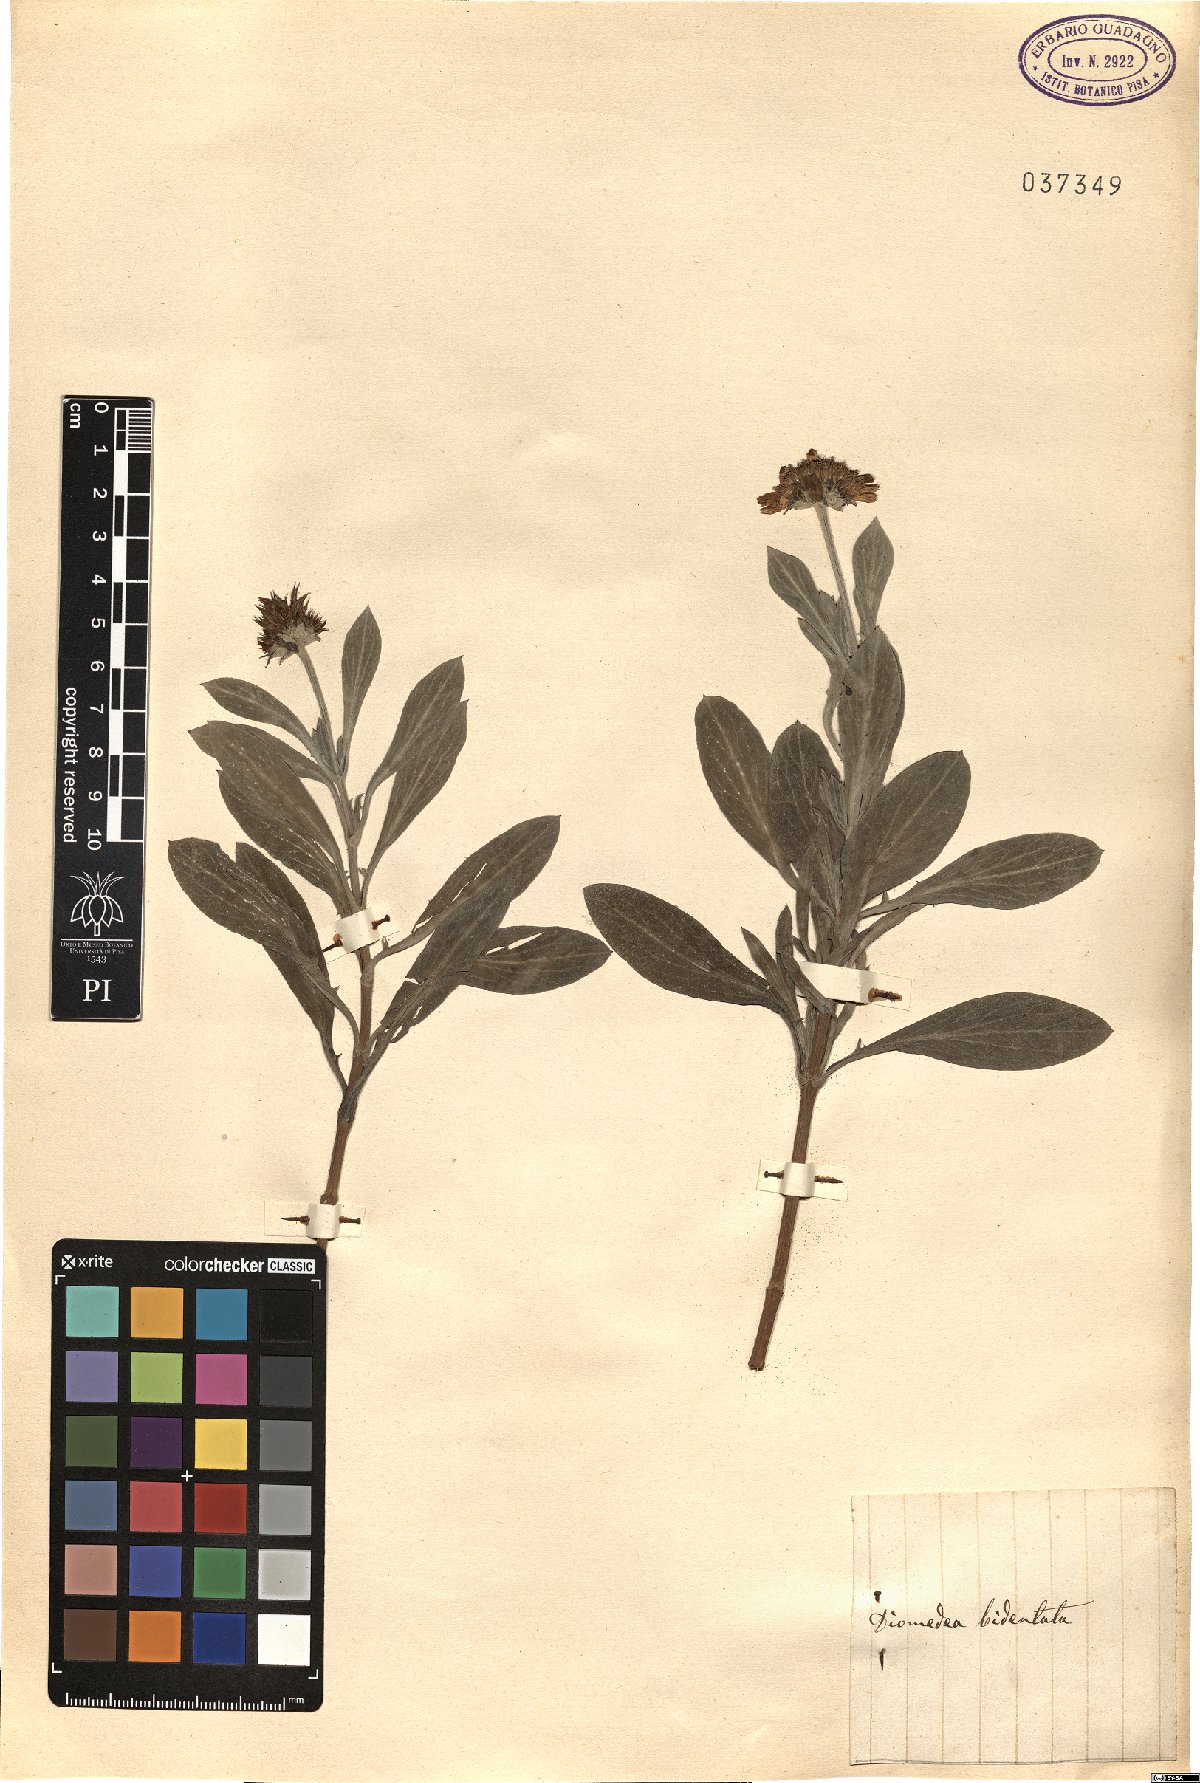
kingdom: Plantae
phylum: Tracheophyta
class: Magnoliopsida
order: Asterales
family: Asteraceae
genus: Borrichia
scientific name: Borrichia frutescens
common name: Sea oxeye
